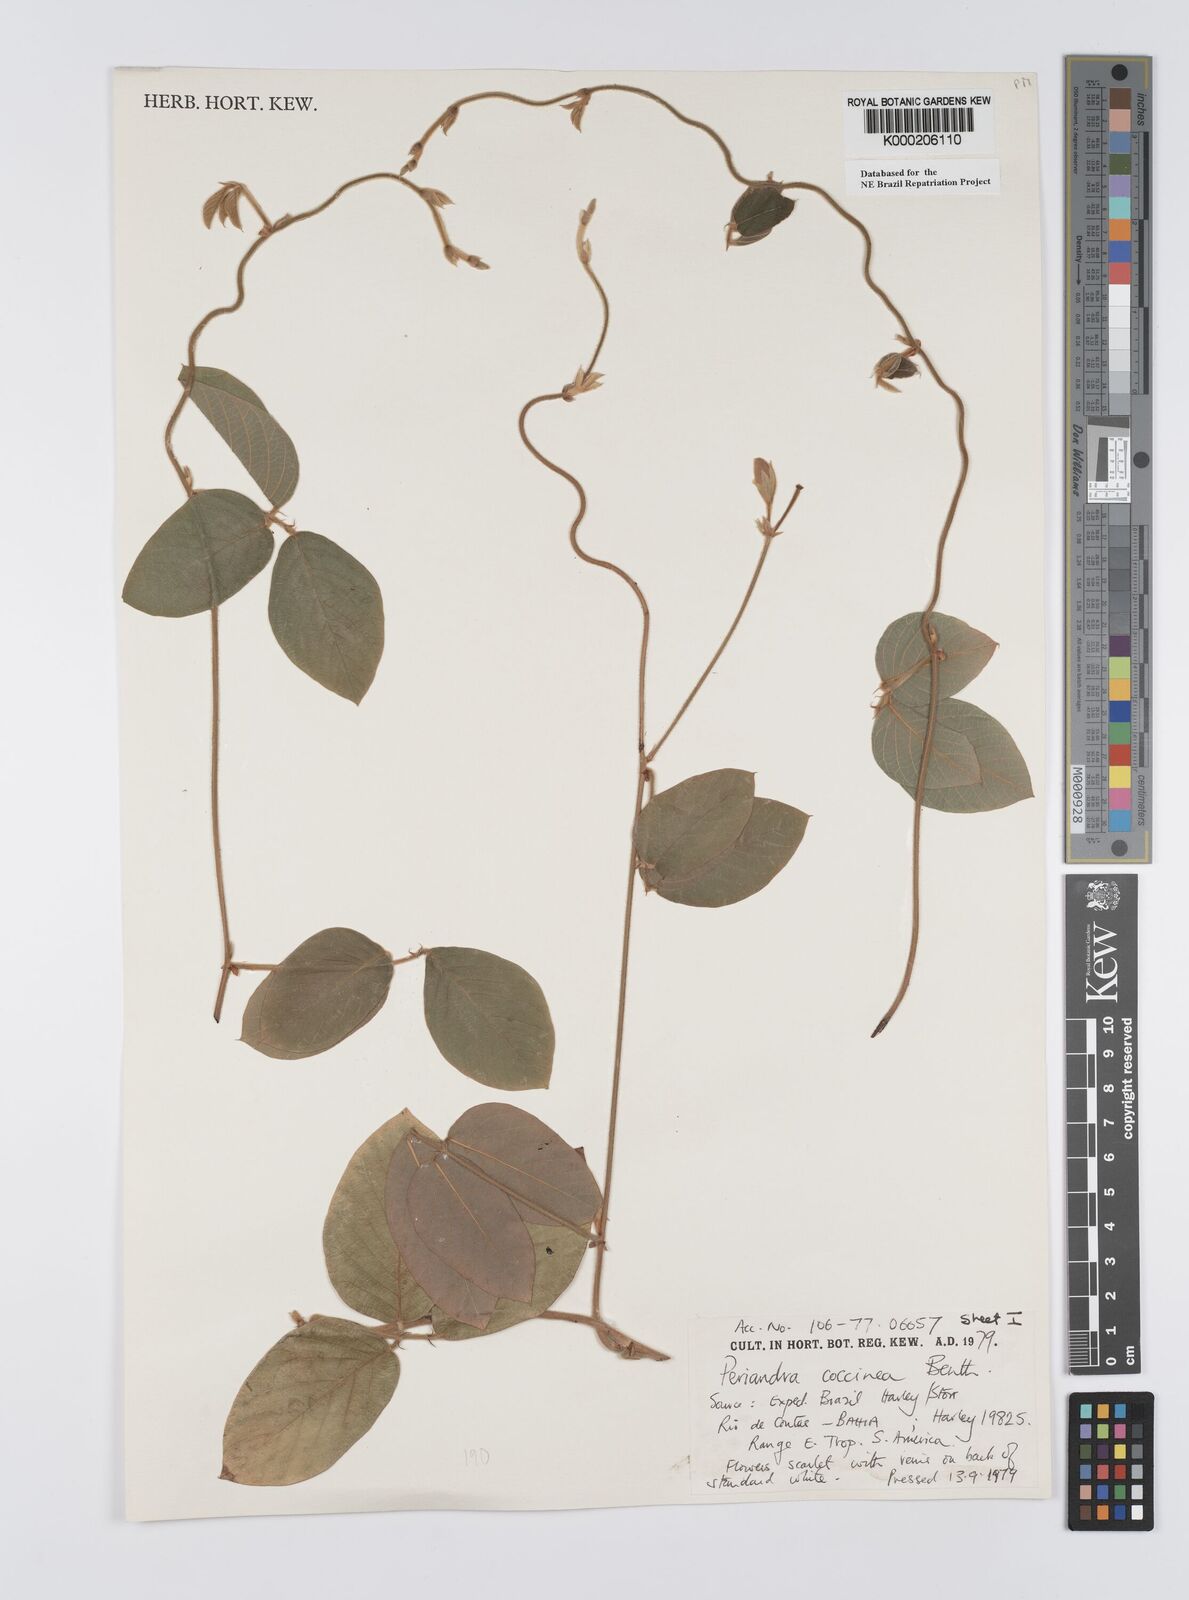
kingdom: Plantae
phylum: Tracheophyta
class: Magnoliopsida
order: Fabales
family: Fabaceae
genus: Periandra
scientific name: Periandra coccinea
